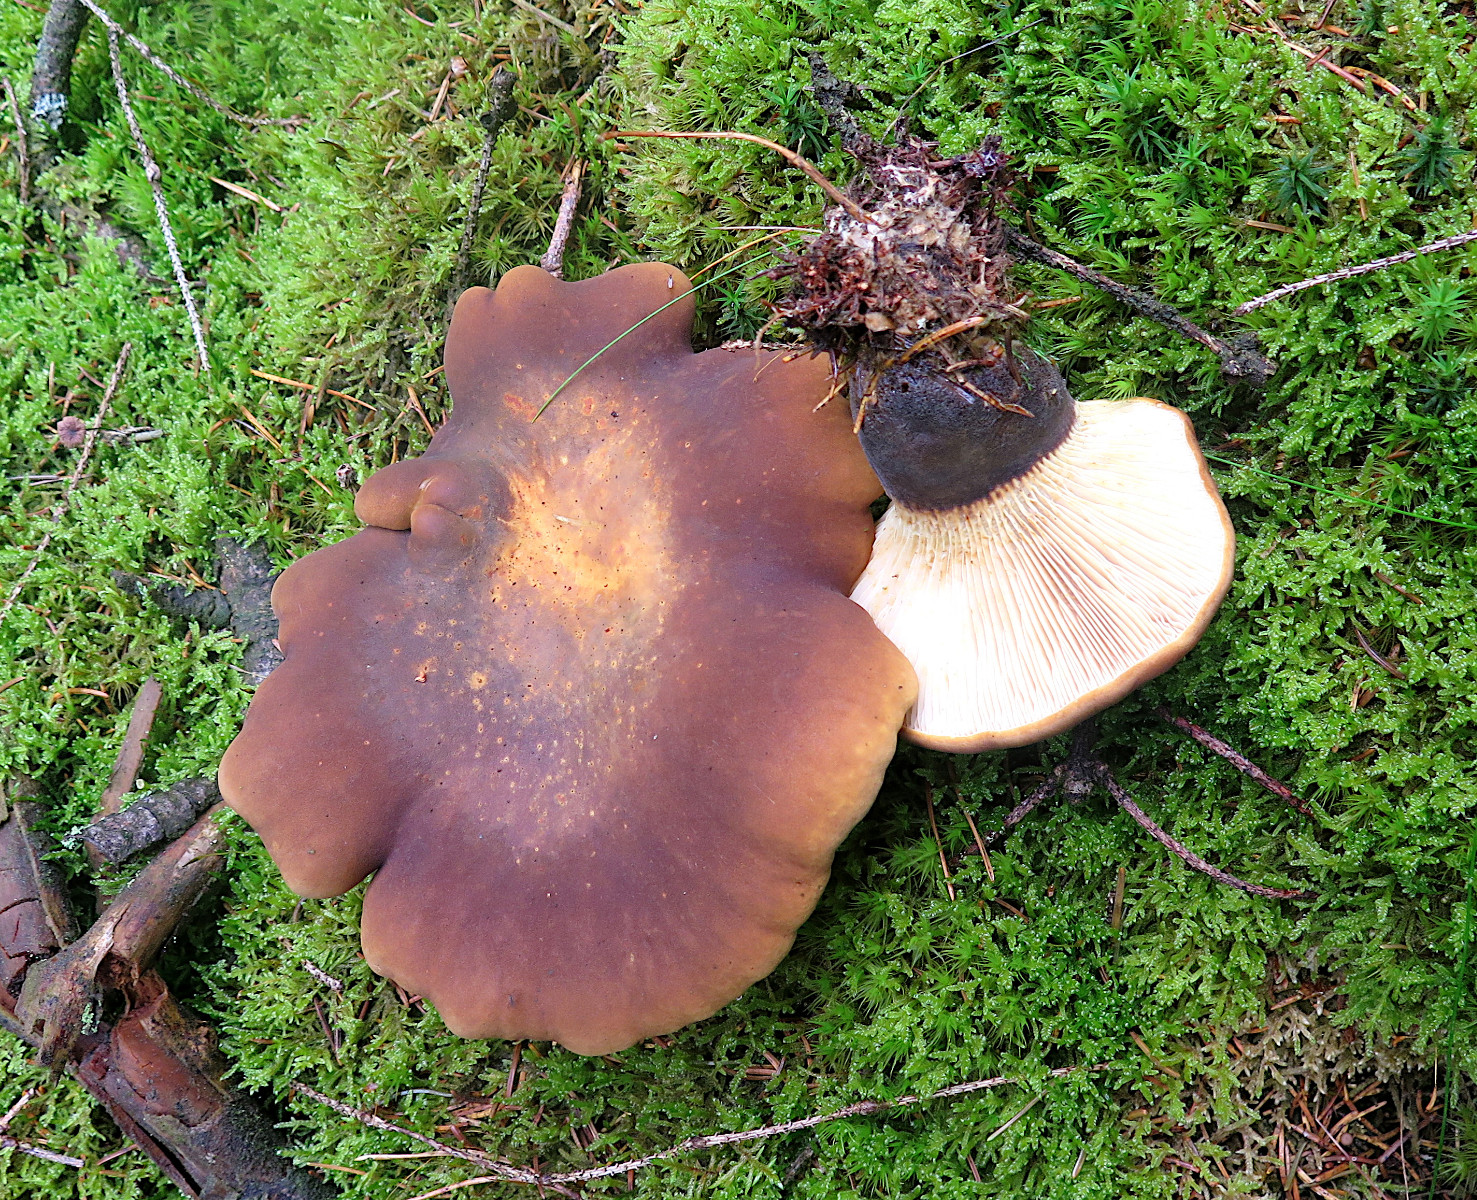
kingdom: Fungi
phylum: Basidiomycota
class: Agaricomycetes
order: Boletales
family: Tapinellaceae
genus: Tapinella
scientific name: Tapinella atrotomentosa
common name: sortfiltet viftesvamp
